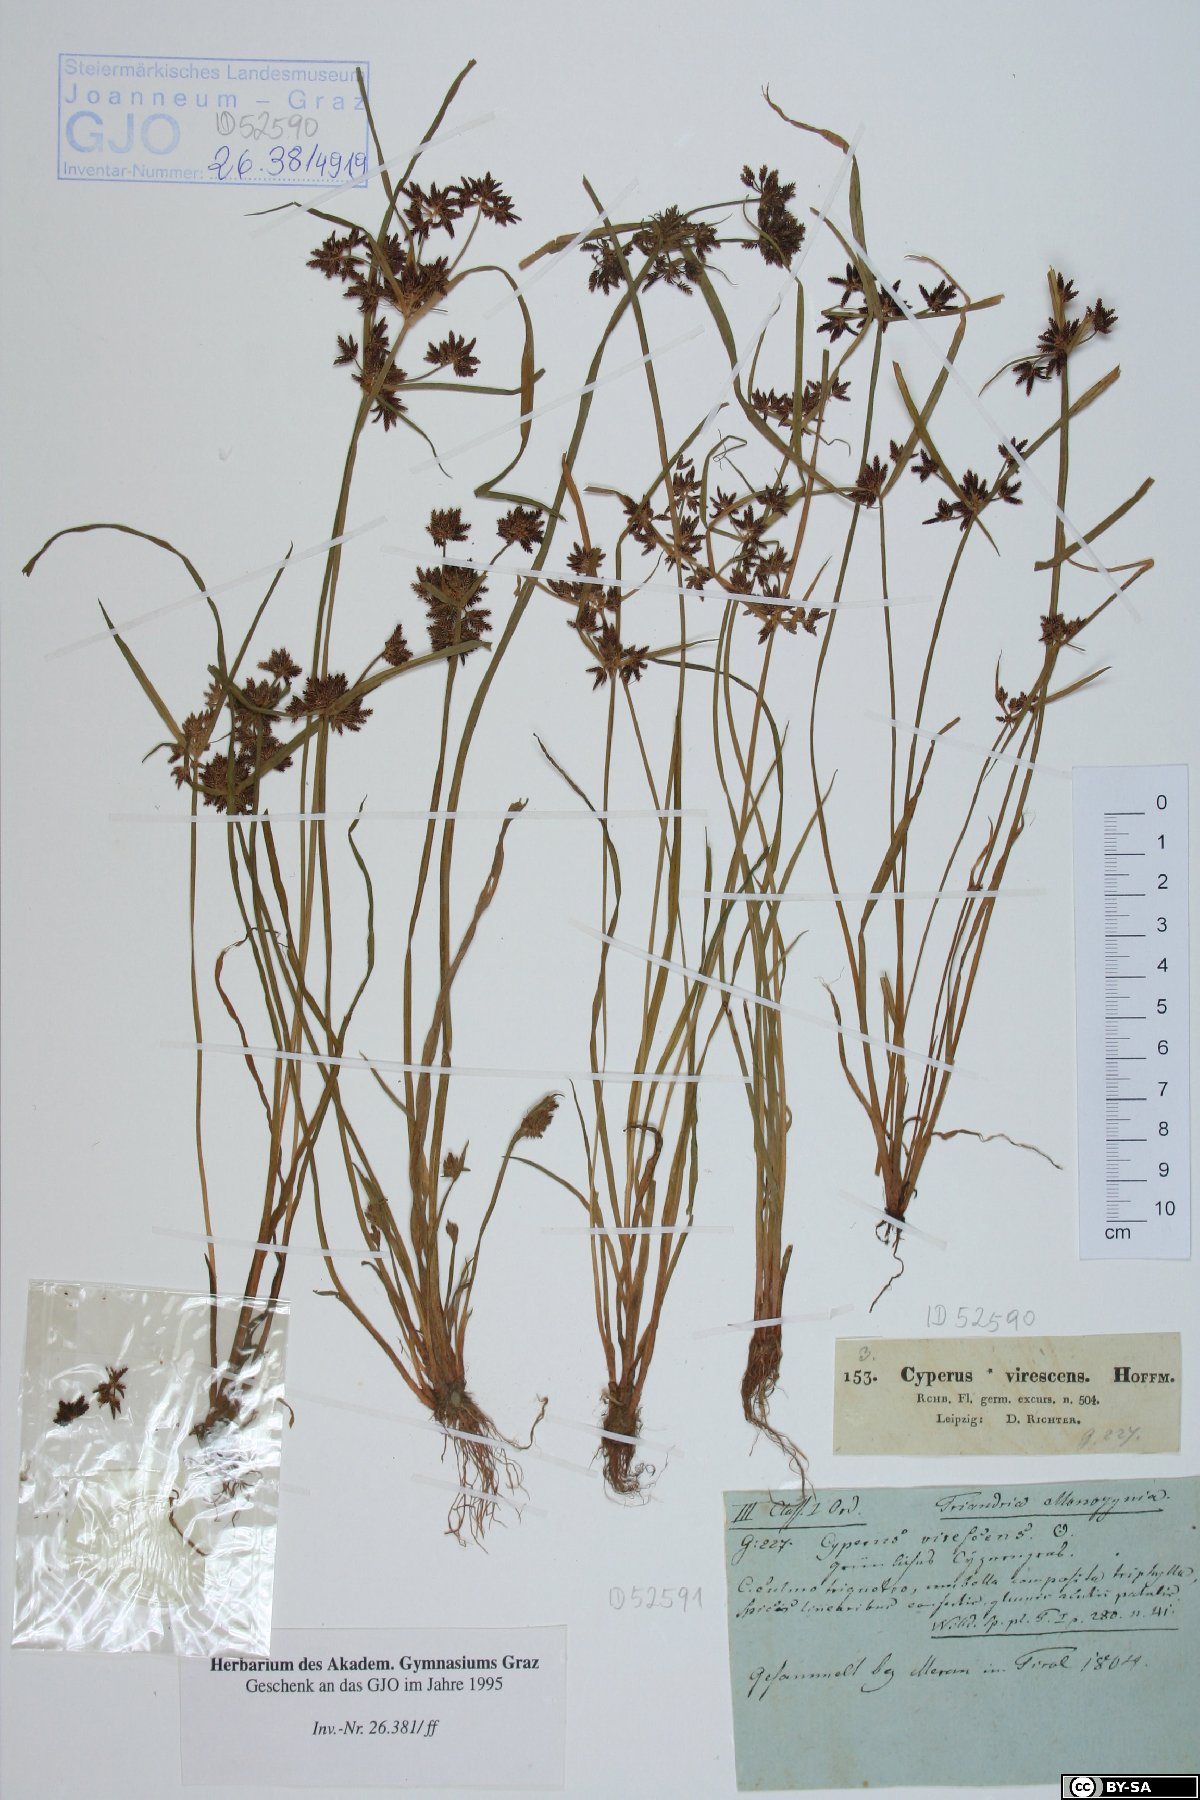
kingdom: Plantae
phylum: Tracheophyta
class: Liliopsida
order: Poales
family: Cyperaceae
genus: Cyperus
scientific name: Cyperus fuscus
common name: Brown galingale
